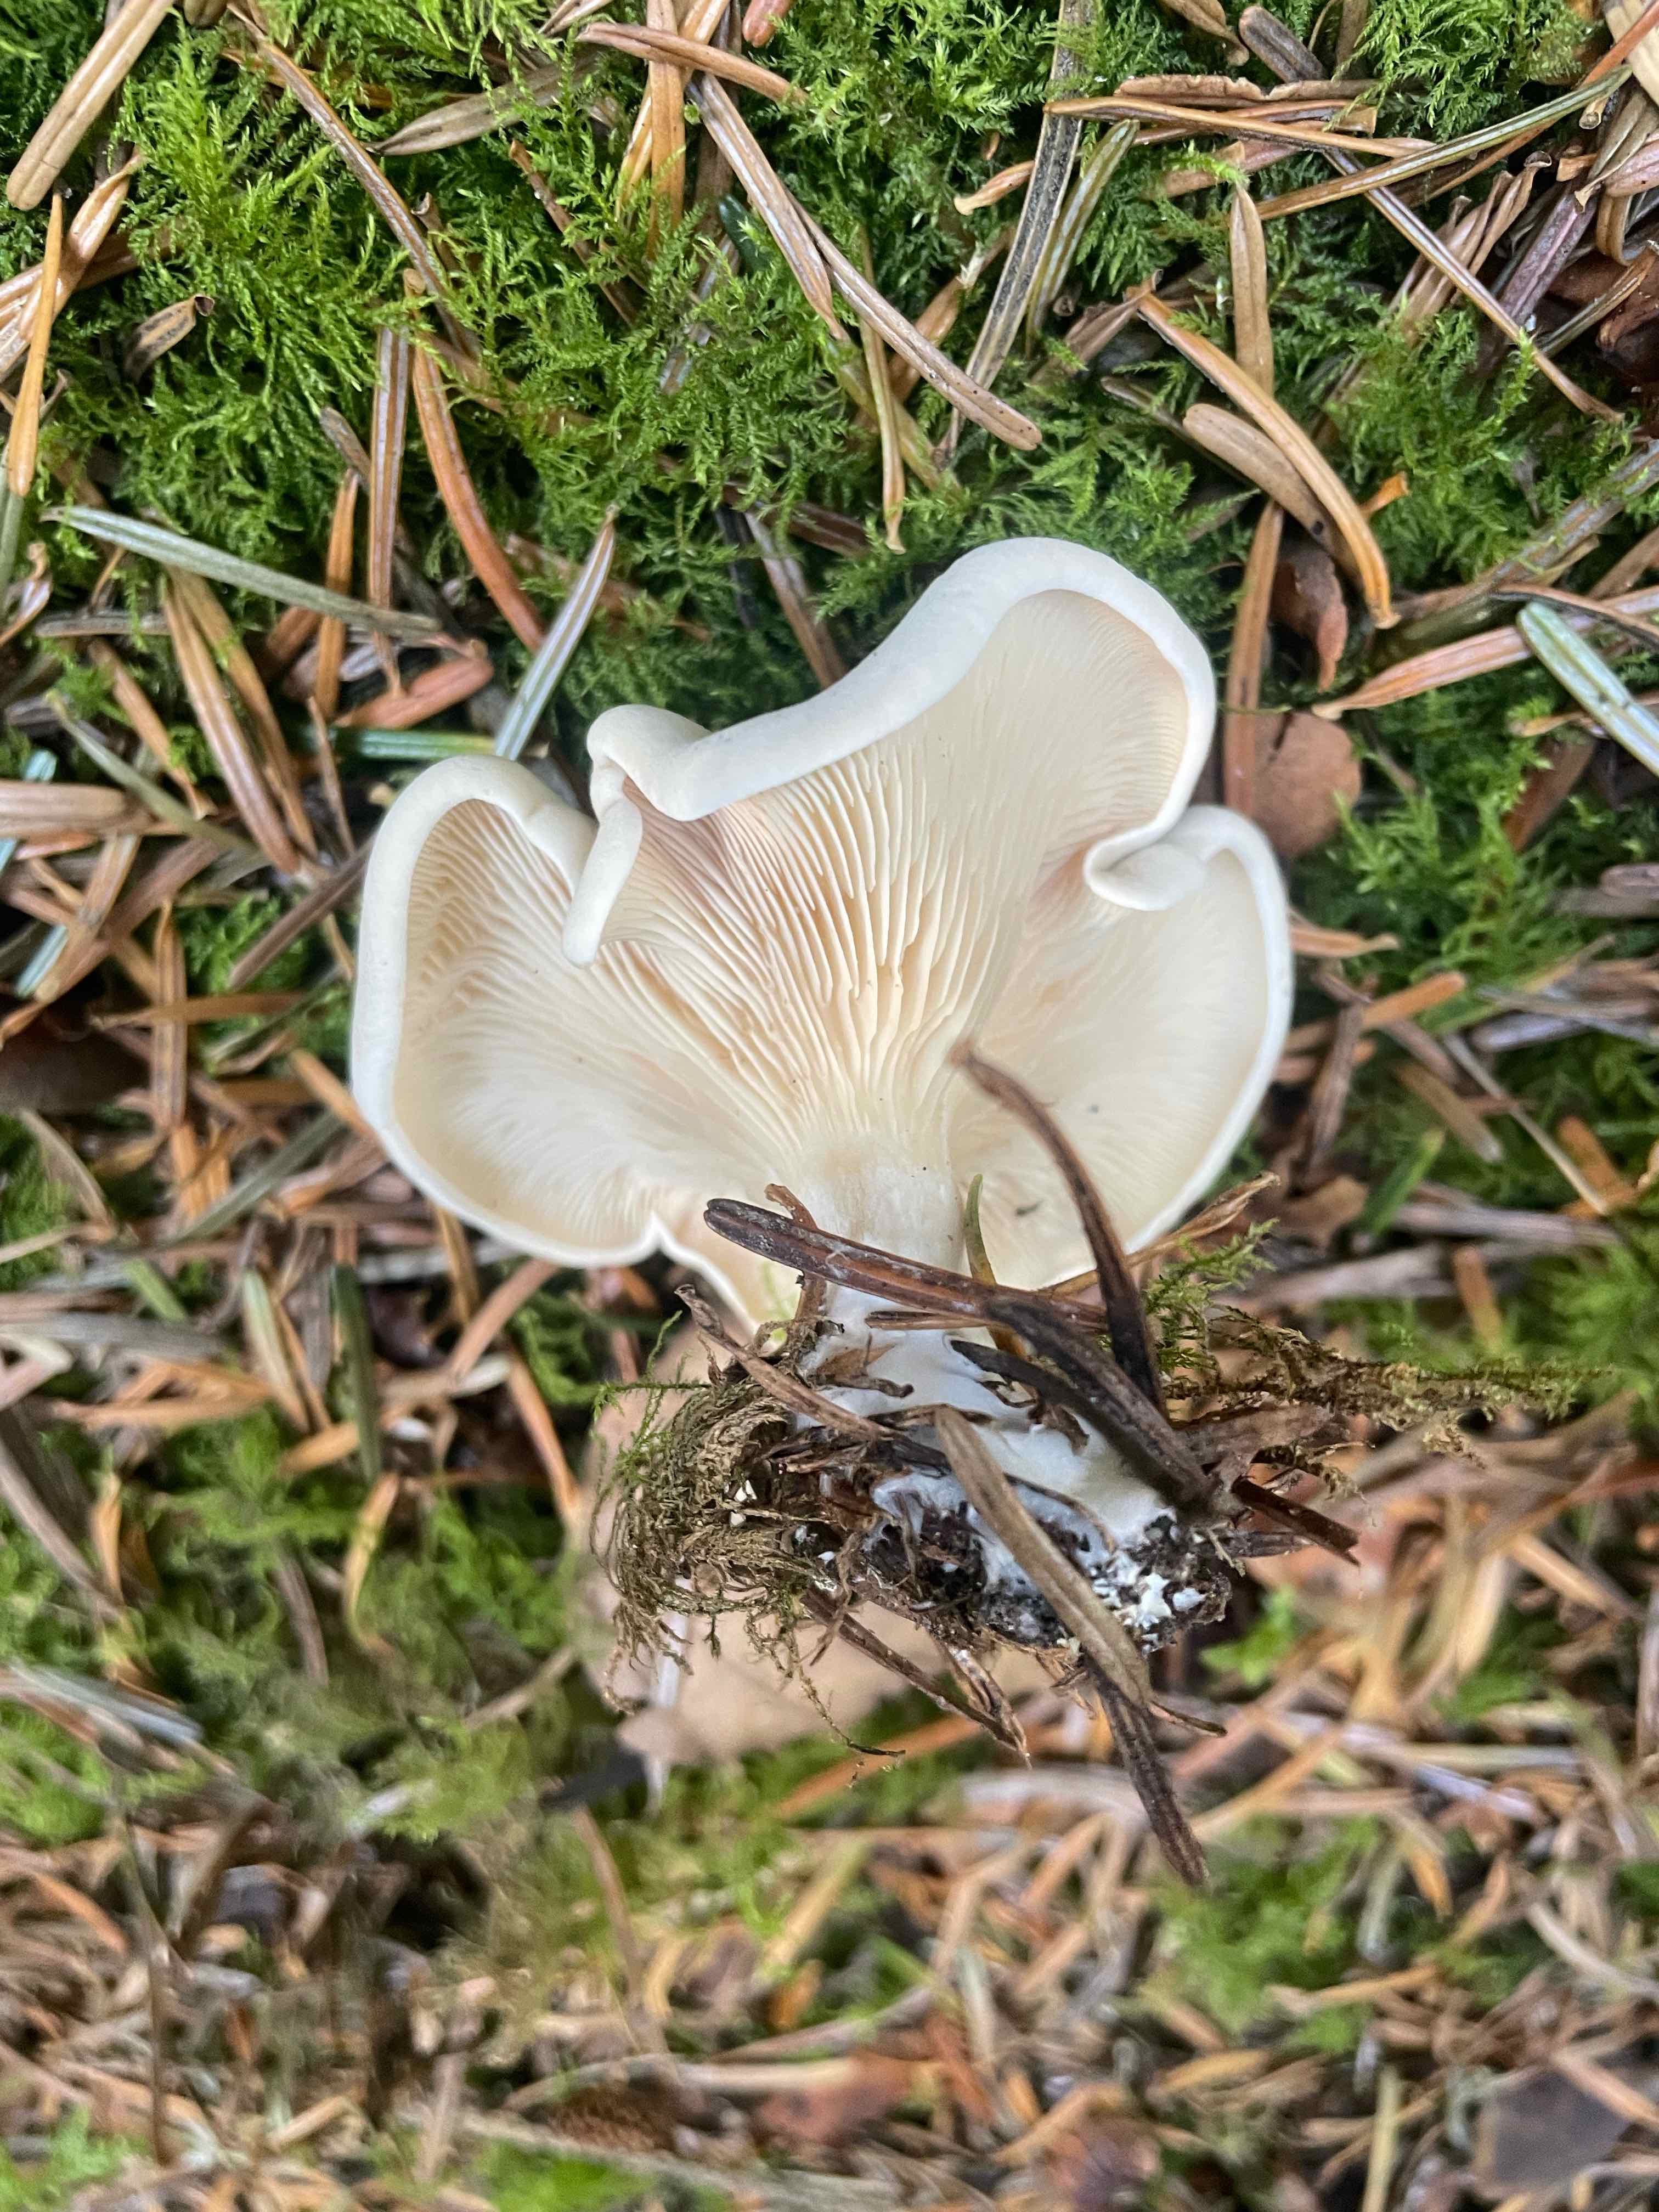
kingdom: Fungi
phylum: Basidiomycota
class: Agaricomycetes
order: Agaricales
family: Entolomataceae
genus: Clitopilus
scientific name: Clitopilus prunulus
